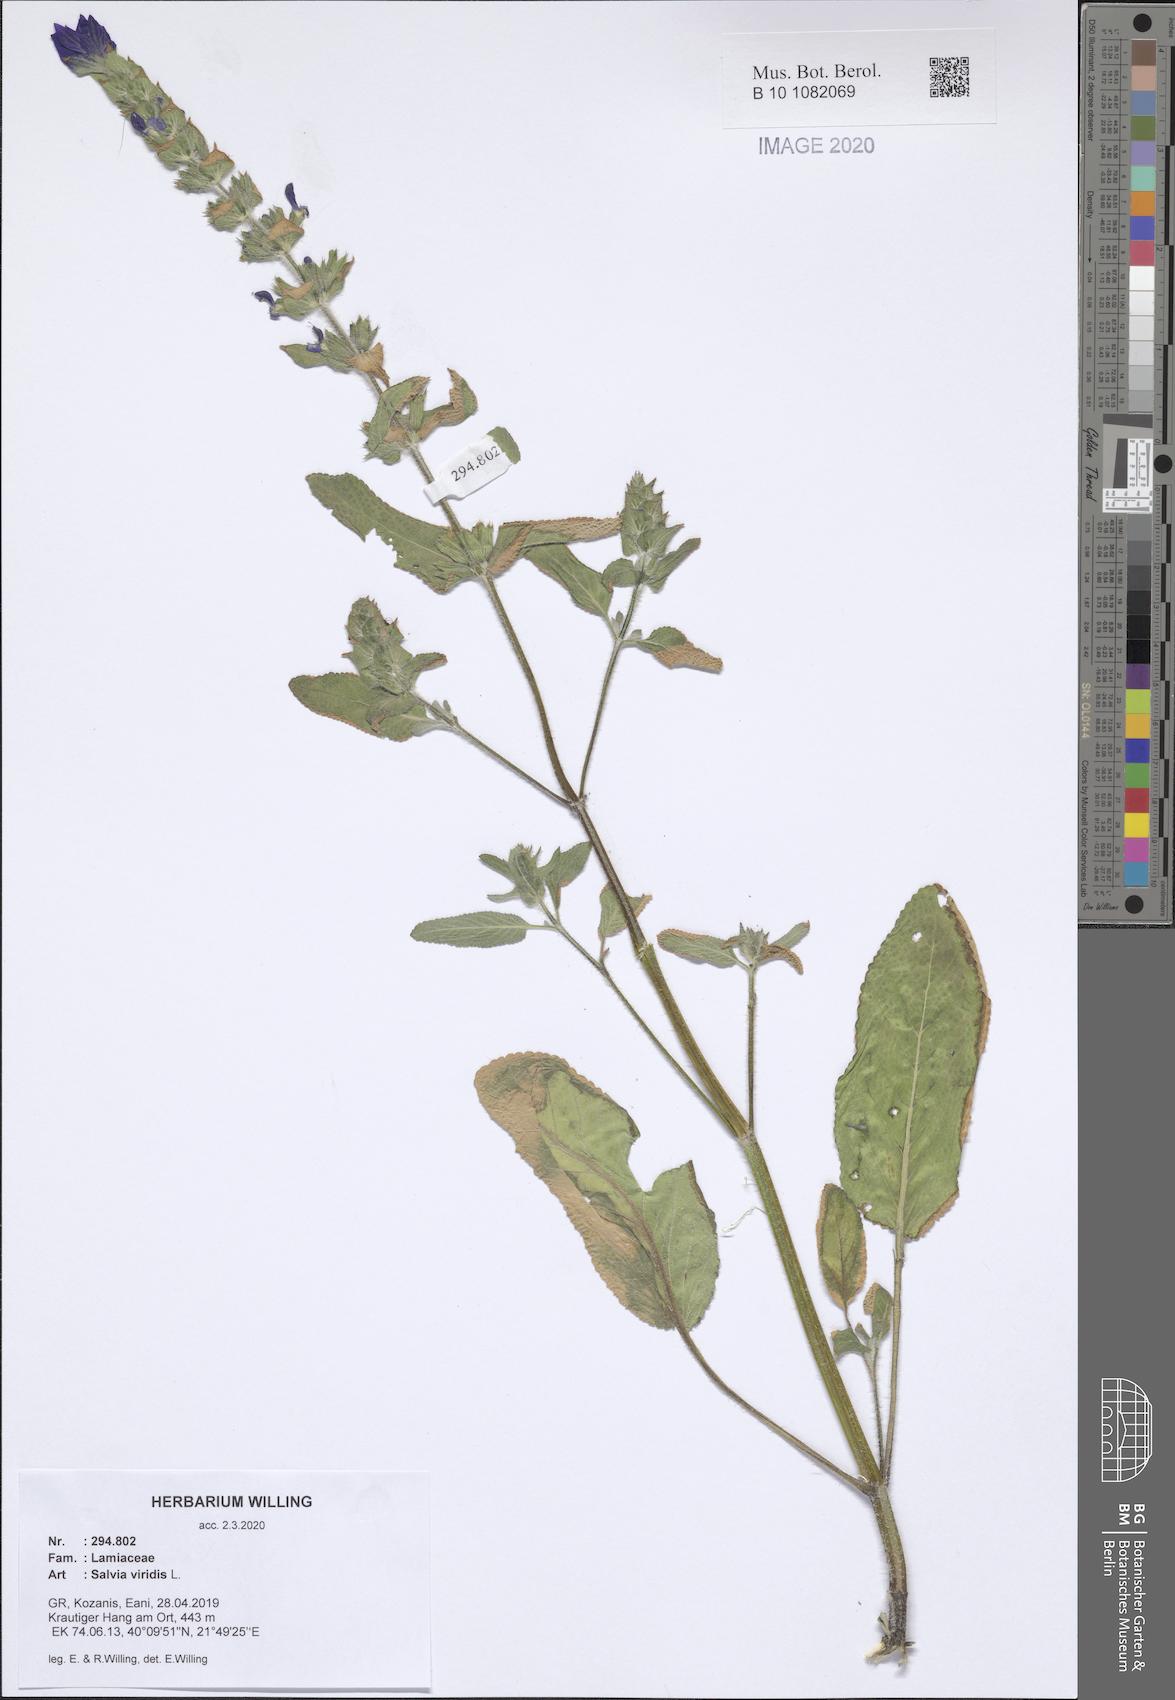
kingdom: Plantae
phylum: Tracheophyta
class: Magnoliopsida
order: Lamiales
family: Lamiaceae
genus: Salvia
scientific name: Salvia viridis
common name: Annual clary
